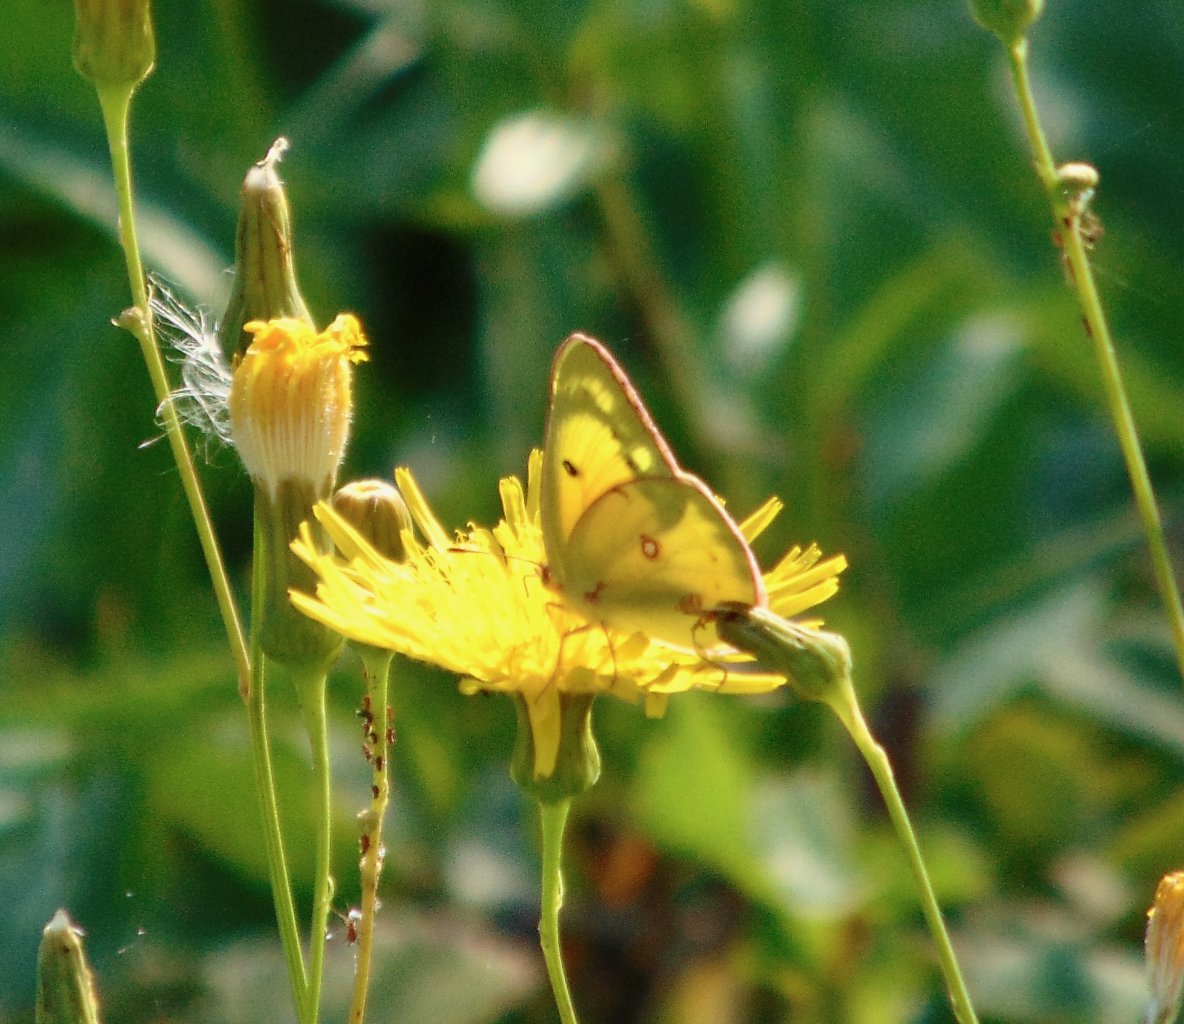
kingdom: Animalia
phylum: Arthropoda
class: Insecta
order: Lepidoptera
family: Pieridae
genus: Colias
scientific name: Colias philodice
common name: Clouded Sulphur
